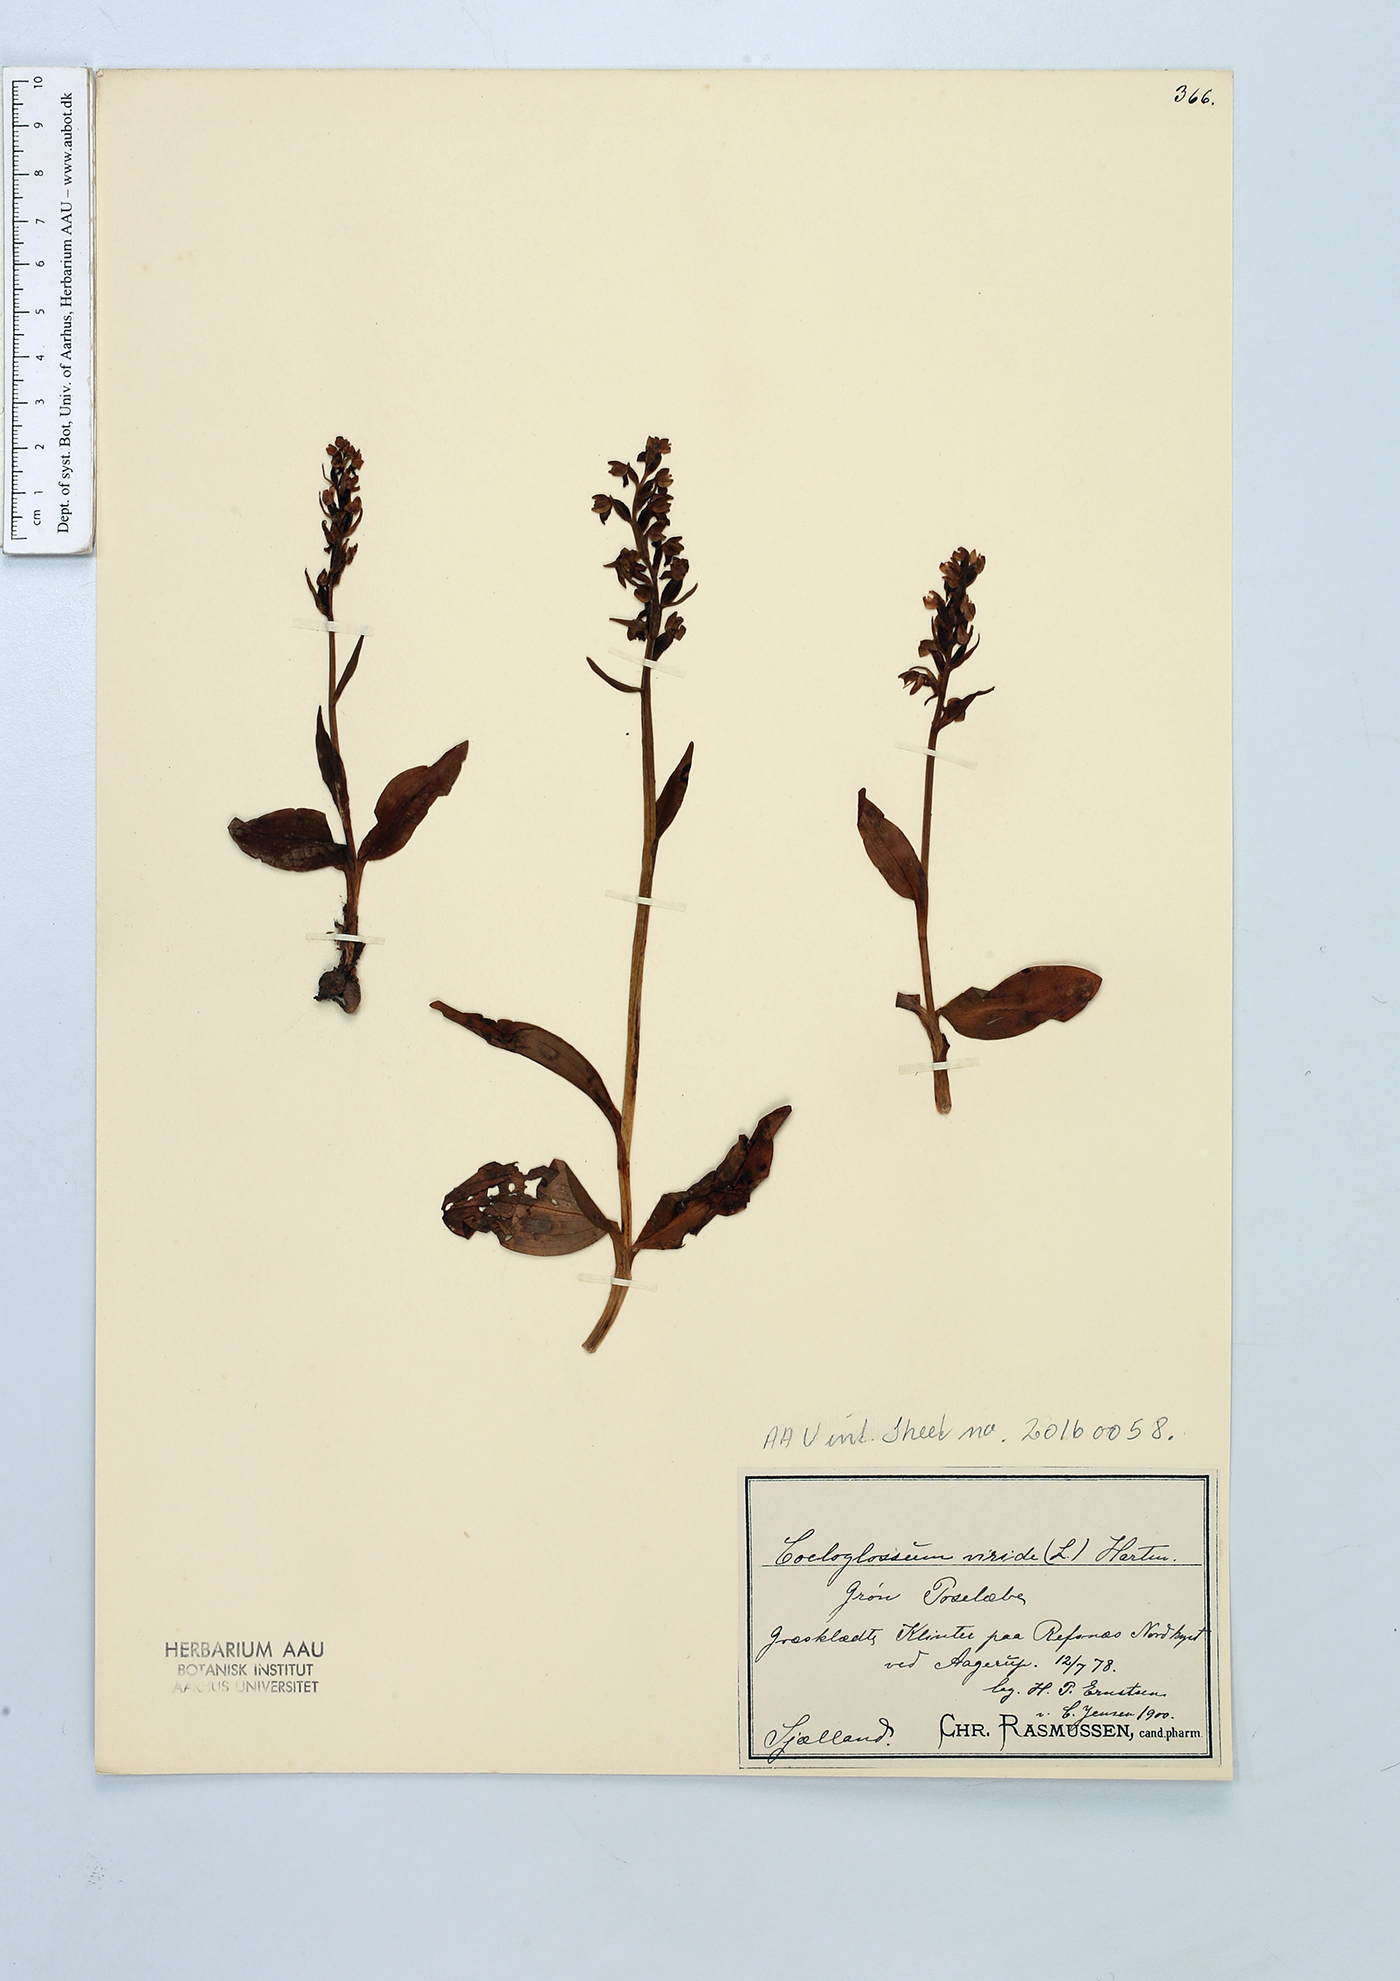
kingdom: Plantae
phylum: Tracheophyta
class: Liliopsida
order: Asparagales
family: Orchidaceae
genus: Dactylorhiza
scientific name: Dactylorhiza viridis
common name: Longbract frog orchid
